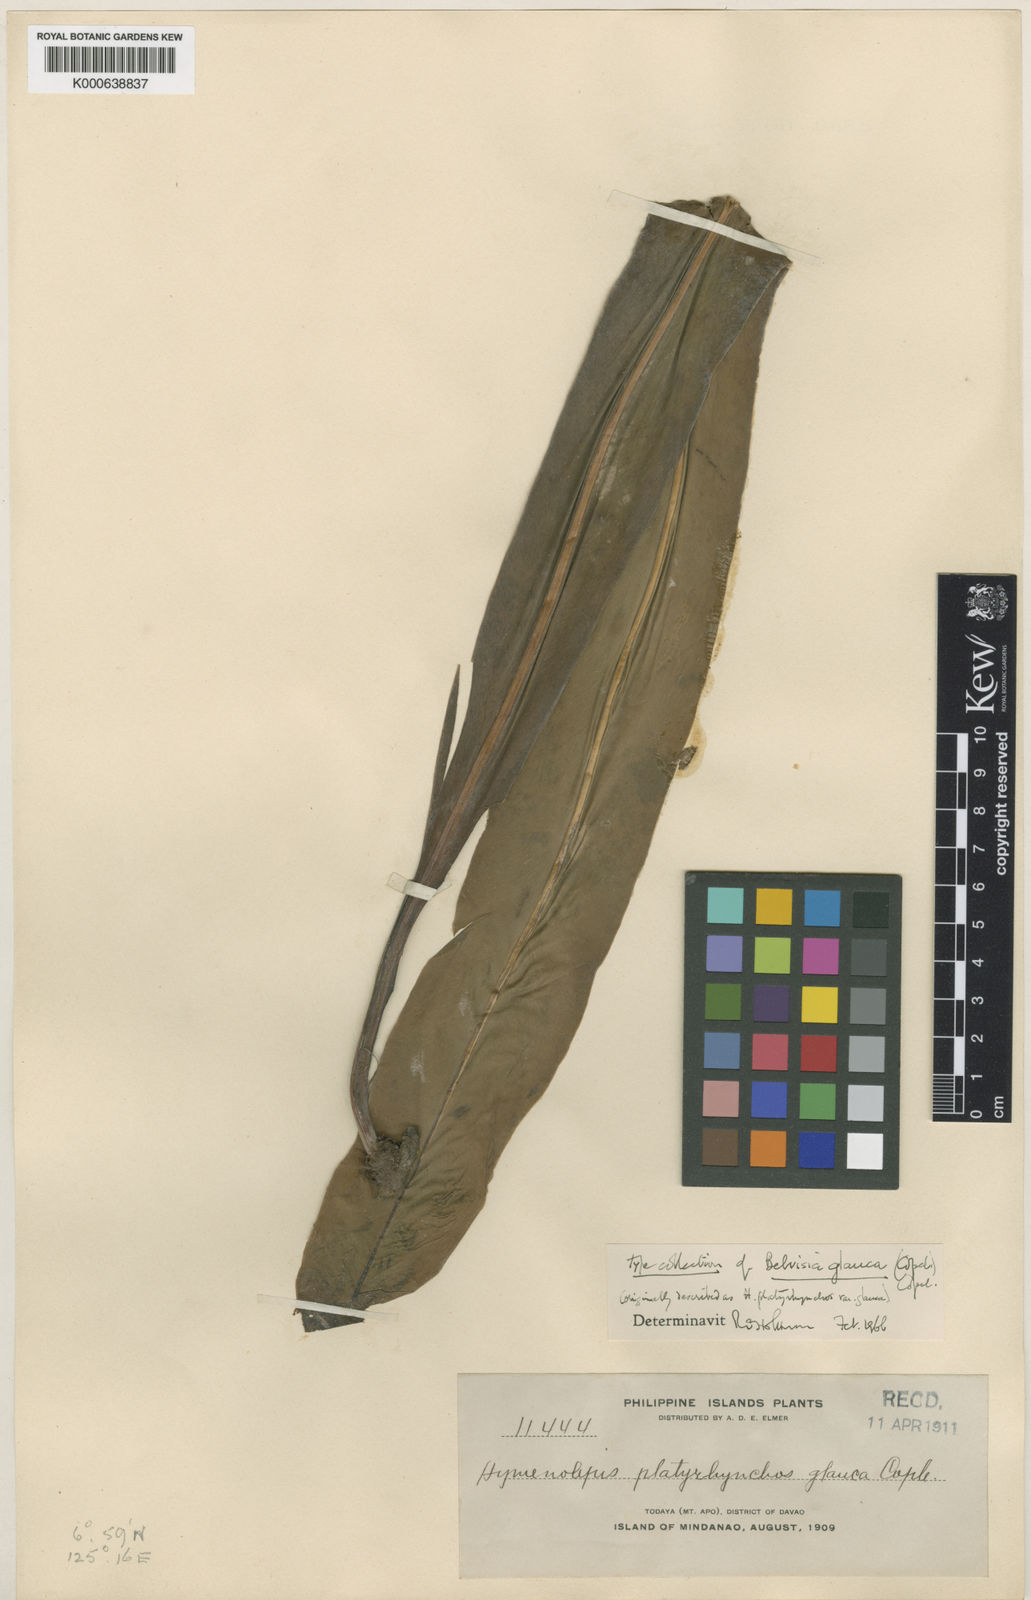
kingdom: Plantae
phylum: Tracheophyta
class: Polypodiopsida
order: Polypodiales
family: Polypodiaceae
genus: Lepisorus
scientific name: Lepisorus platyrhynchos
